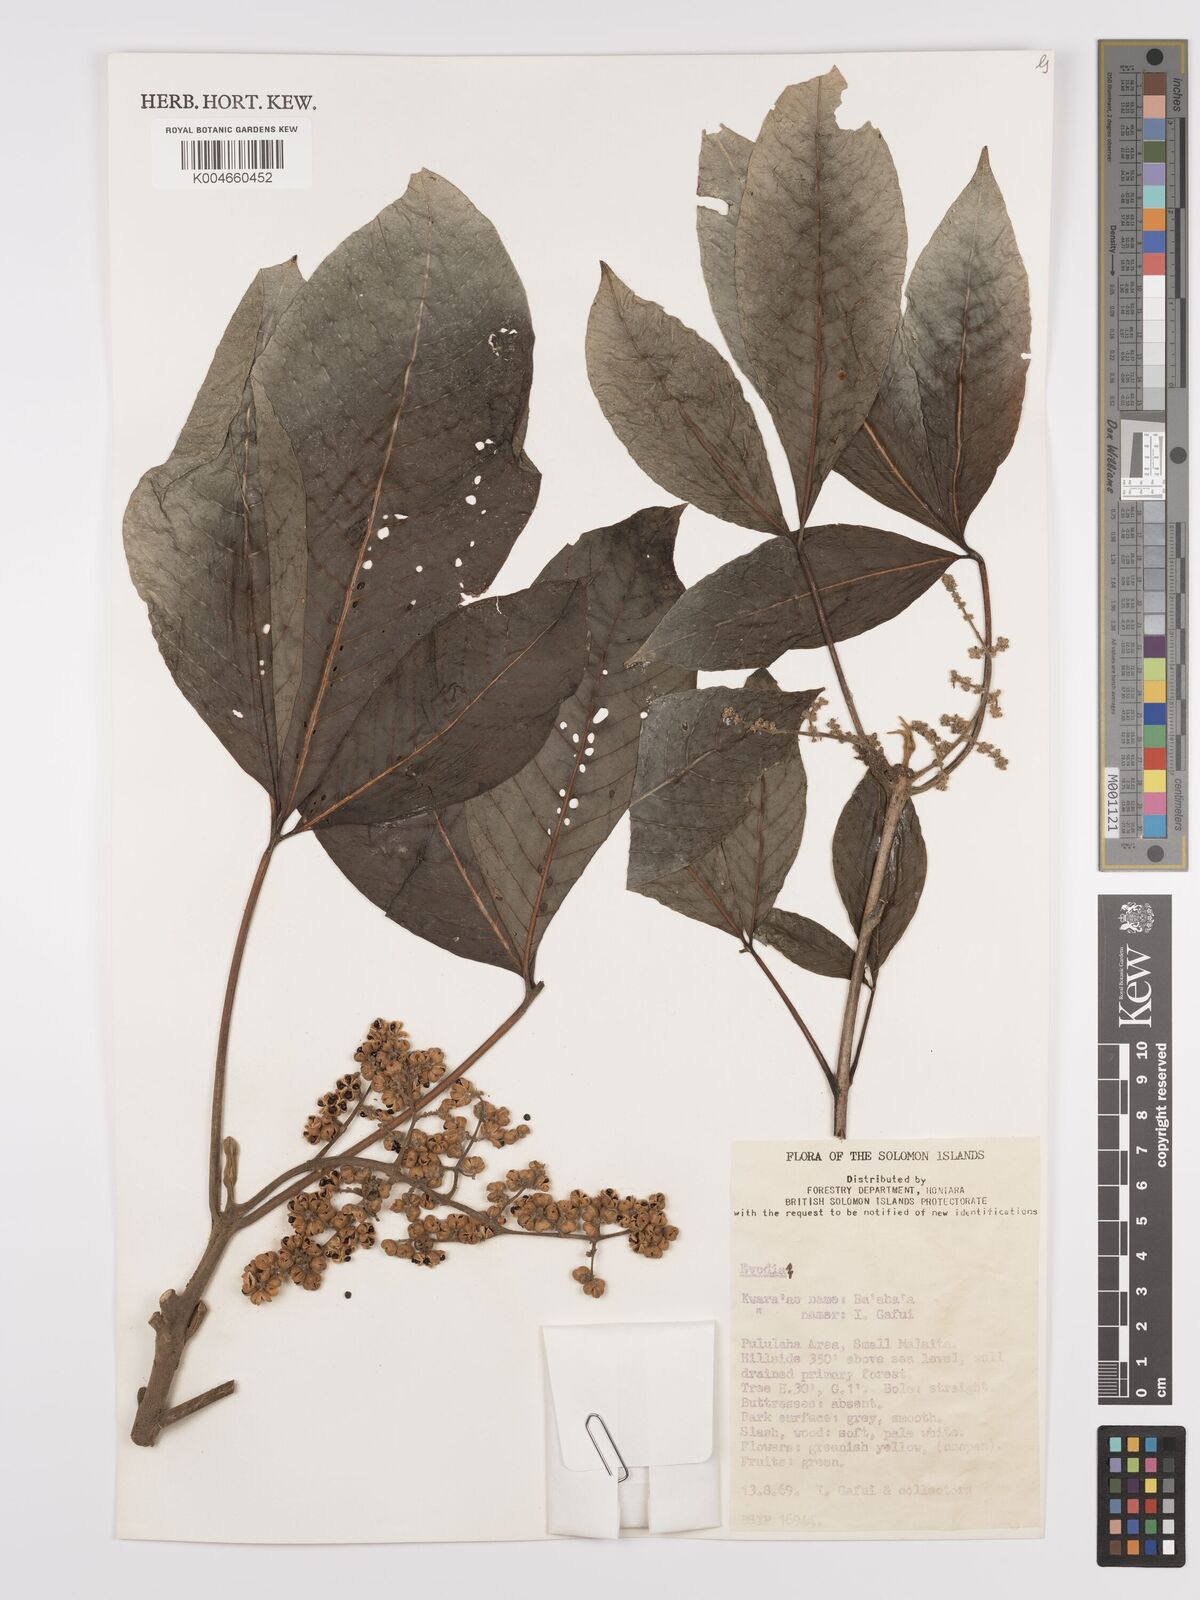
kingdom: Plantae
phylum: Tracheophyta
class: Magnoliopsida
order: Sapindales
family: Rutaceae
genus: Euodia
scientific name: Euodia
